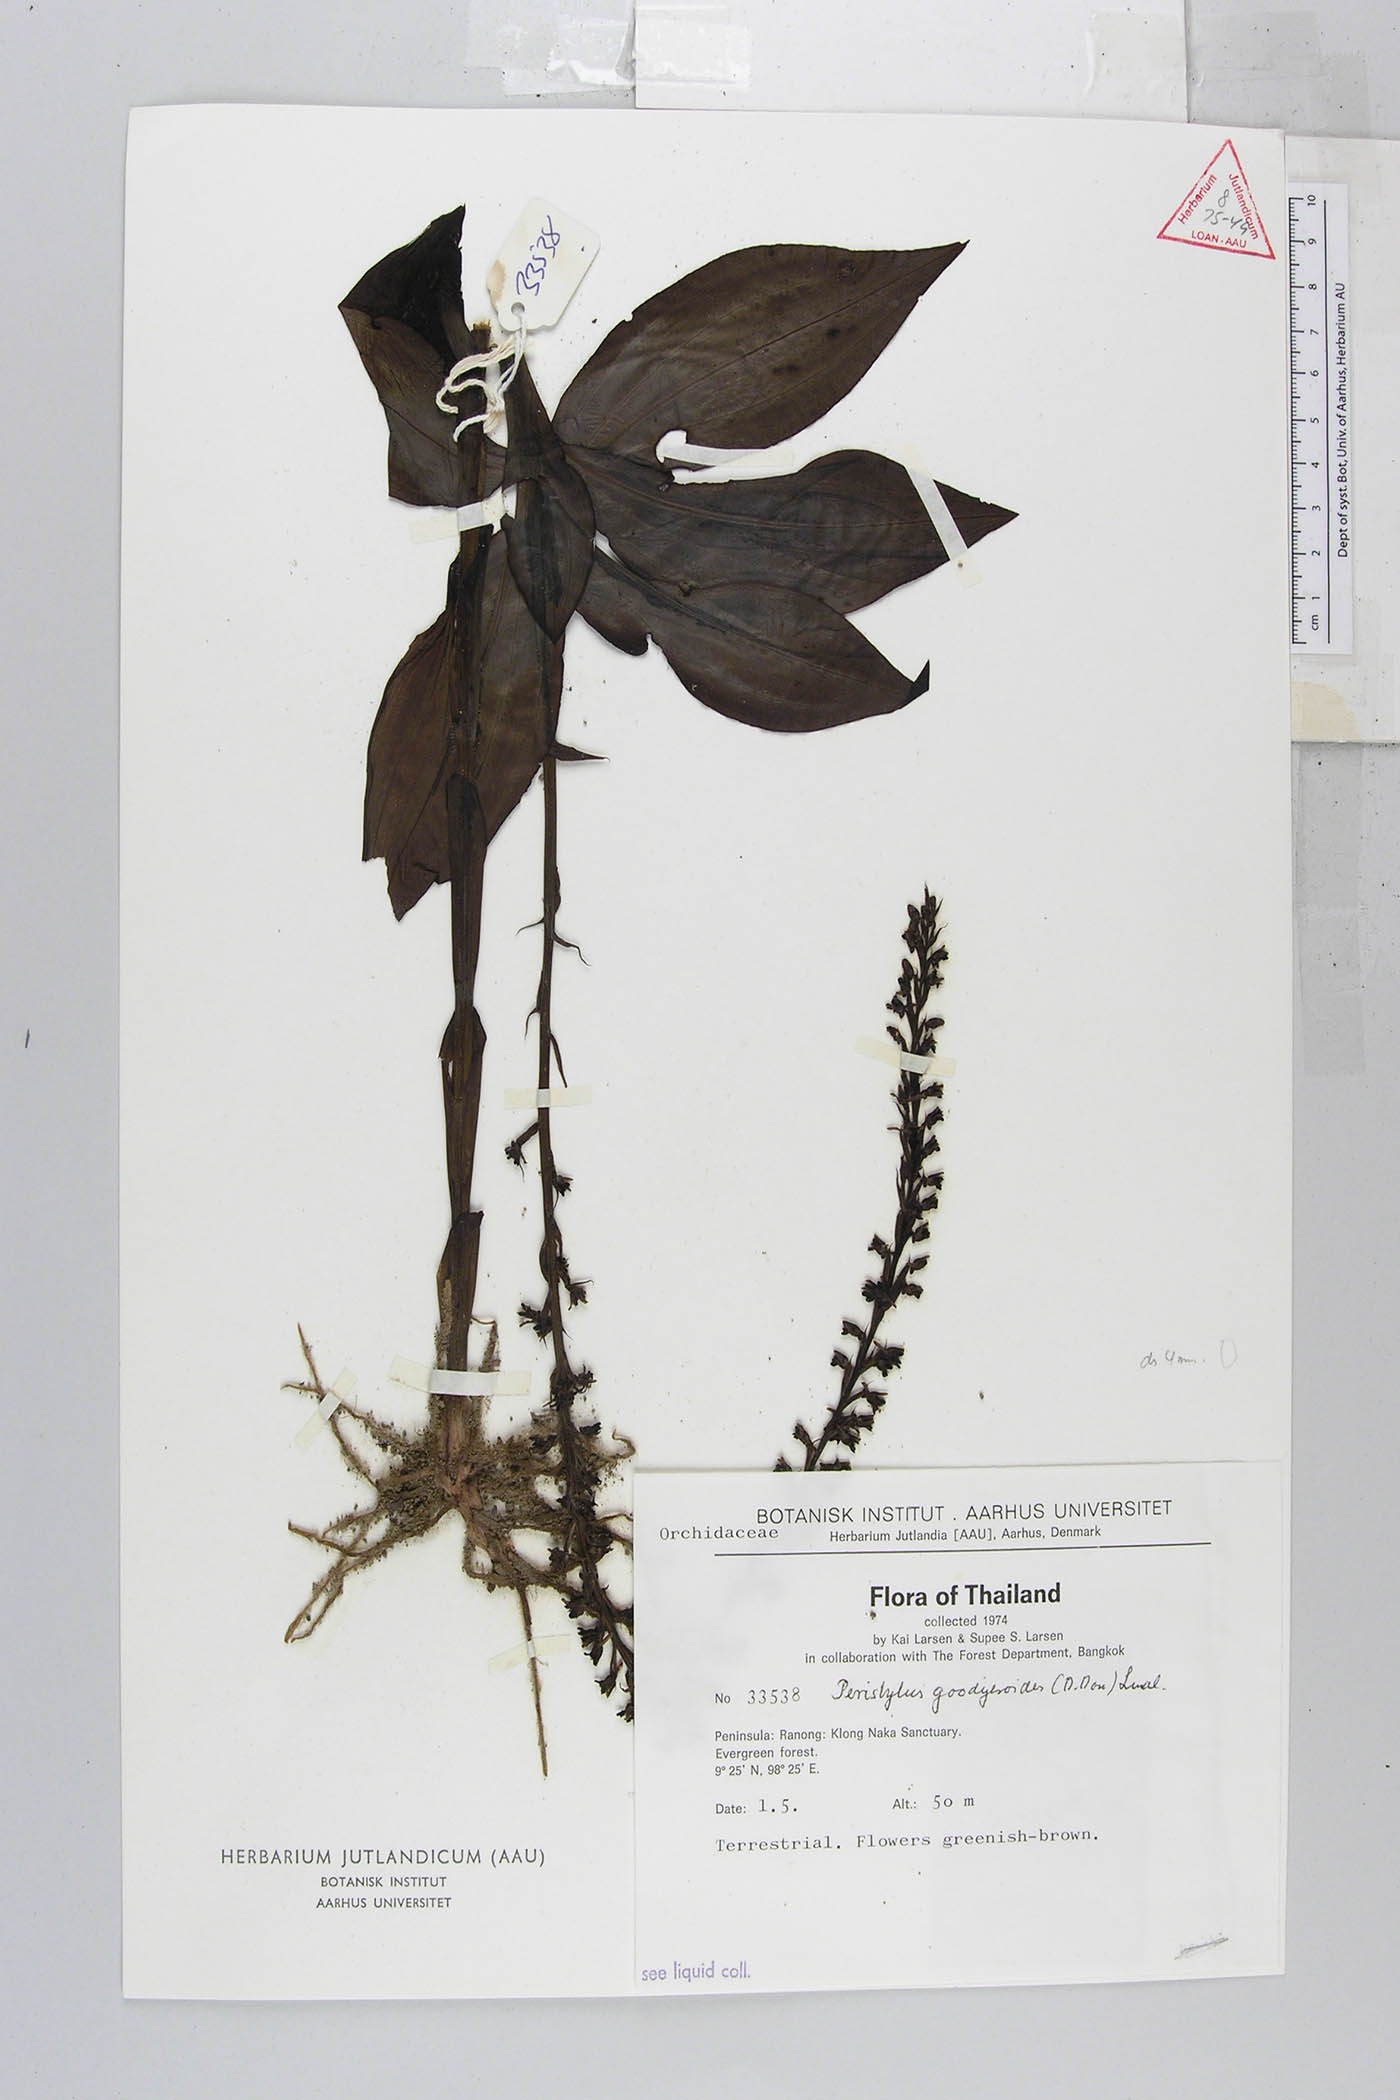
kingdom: Plantae
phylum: Tracheophyta
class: Liliopsida
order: Asparagales
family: Orchidaceae
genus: Peristylus
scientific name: Peristylus goodyeroides
